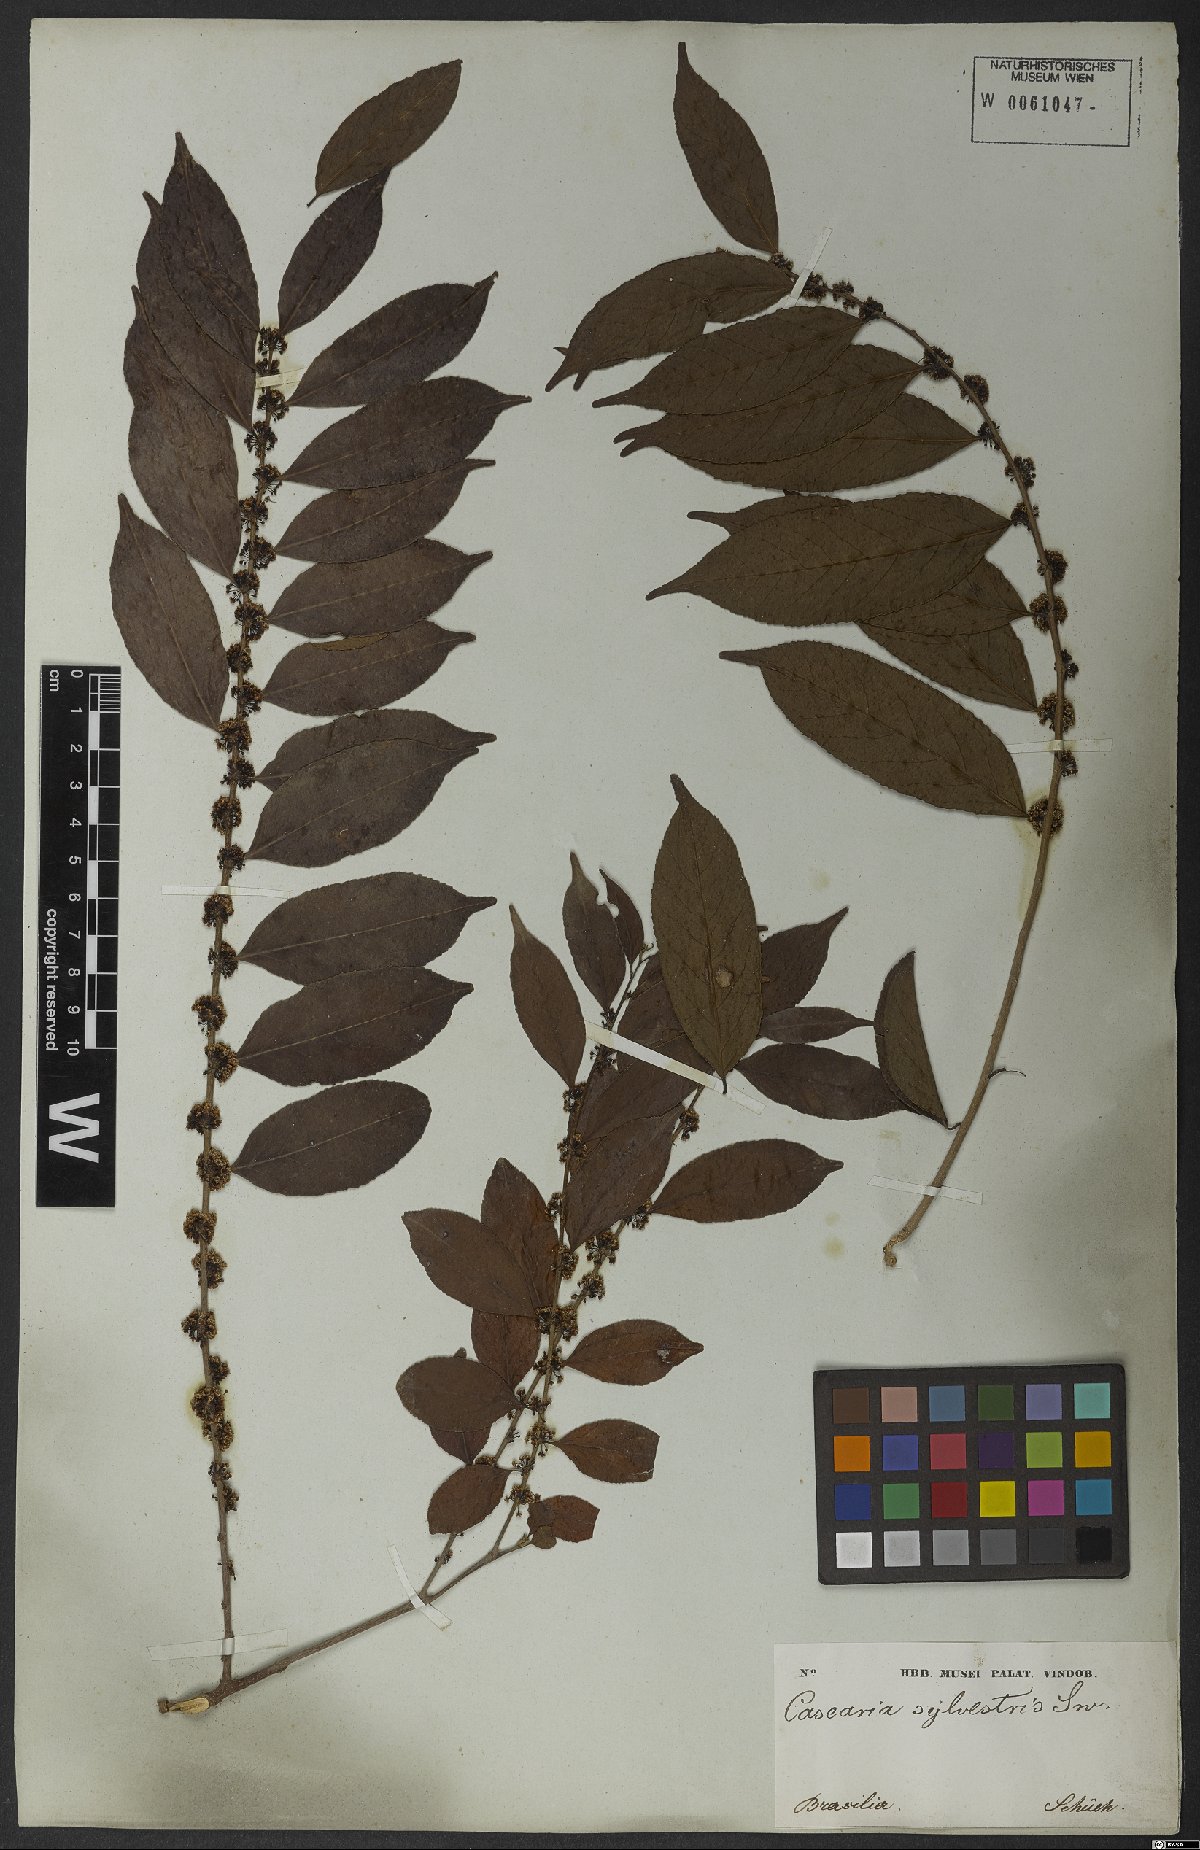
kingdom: Plantae
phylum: Tracheophyta
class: Magnoliopsida
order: Malpighiales
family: Salicaceae
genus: Casearia
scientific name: Casearia sylvestris
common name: Wild sage
